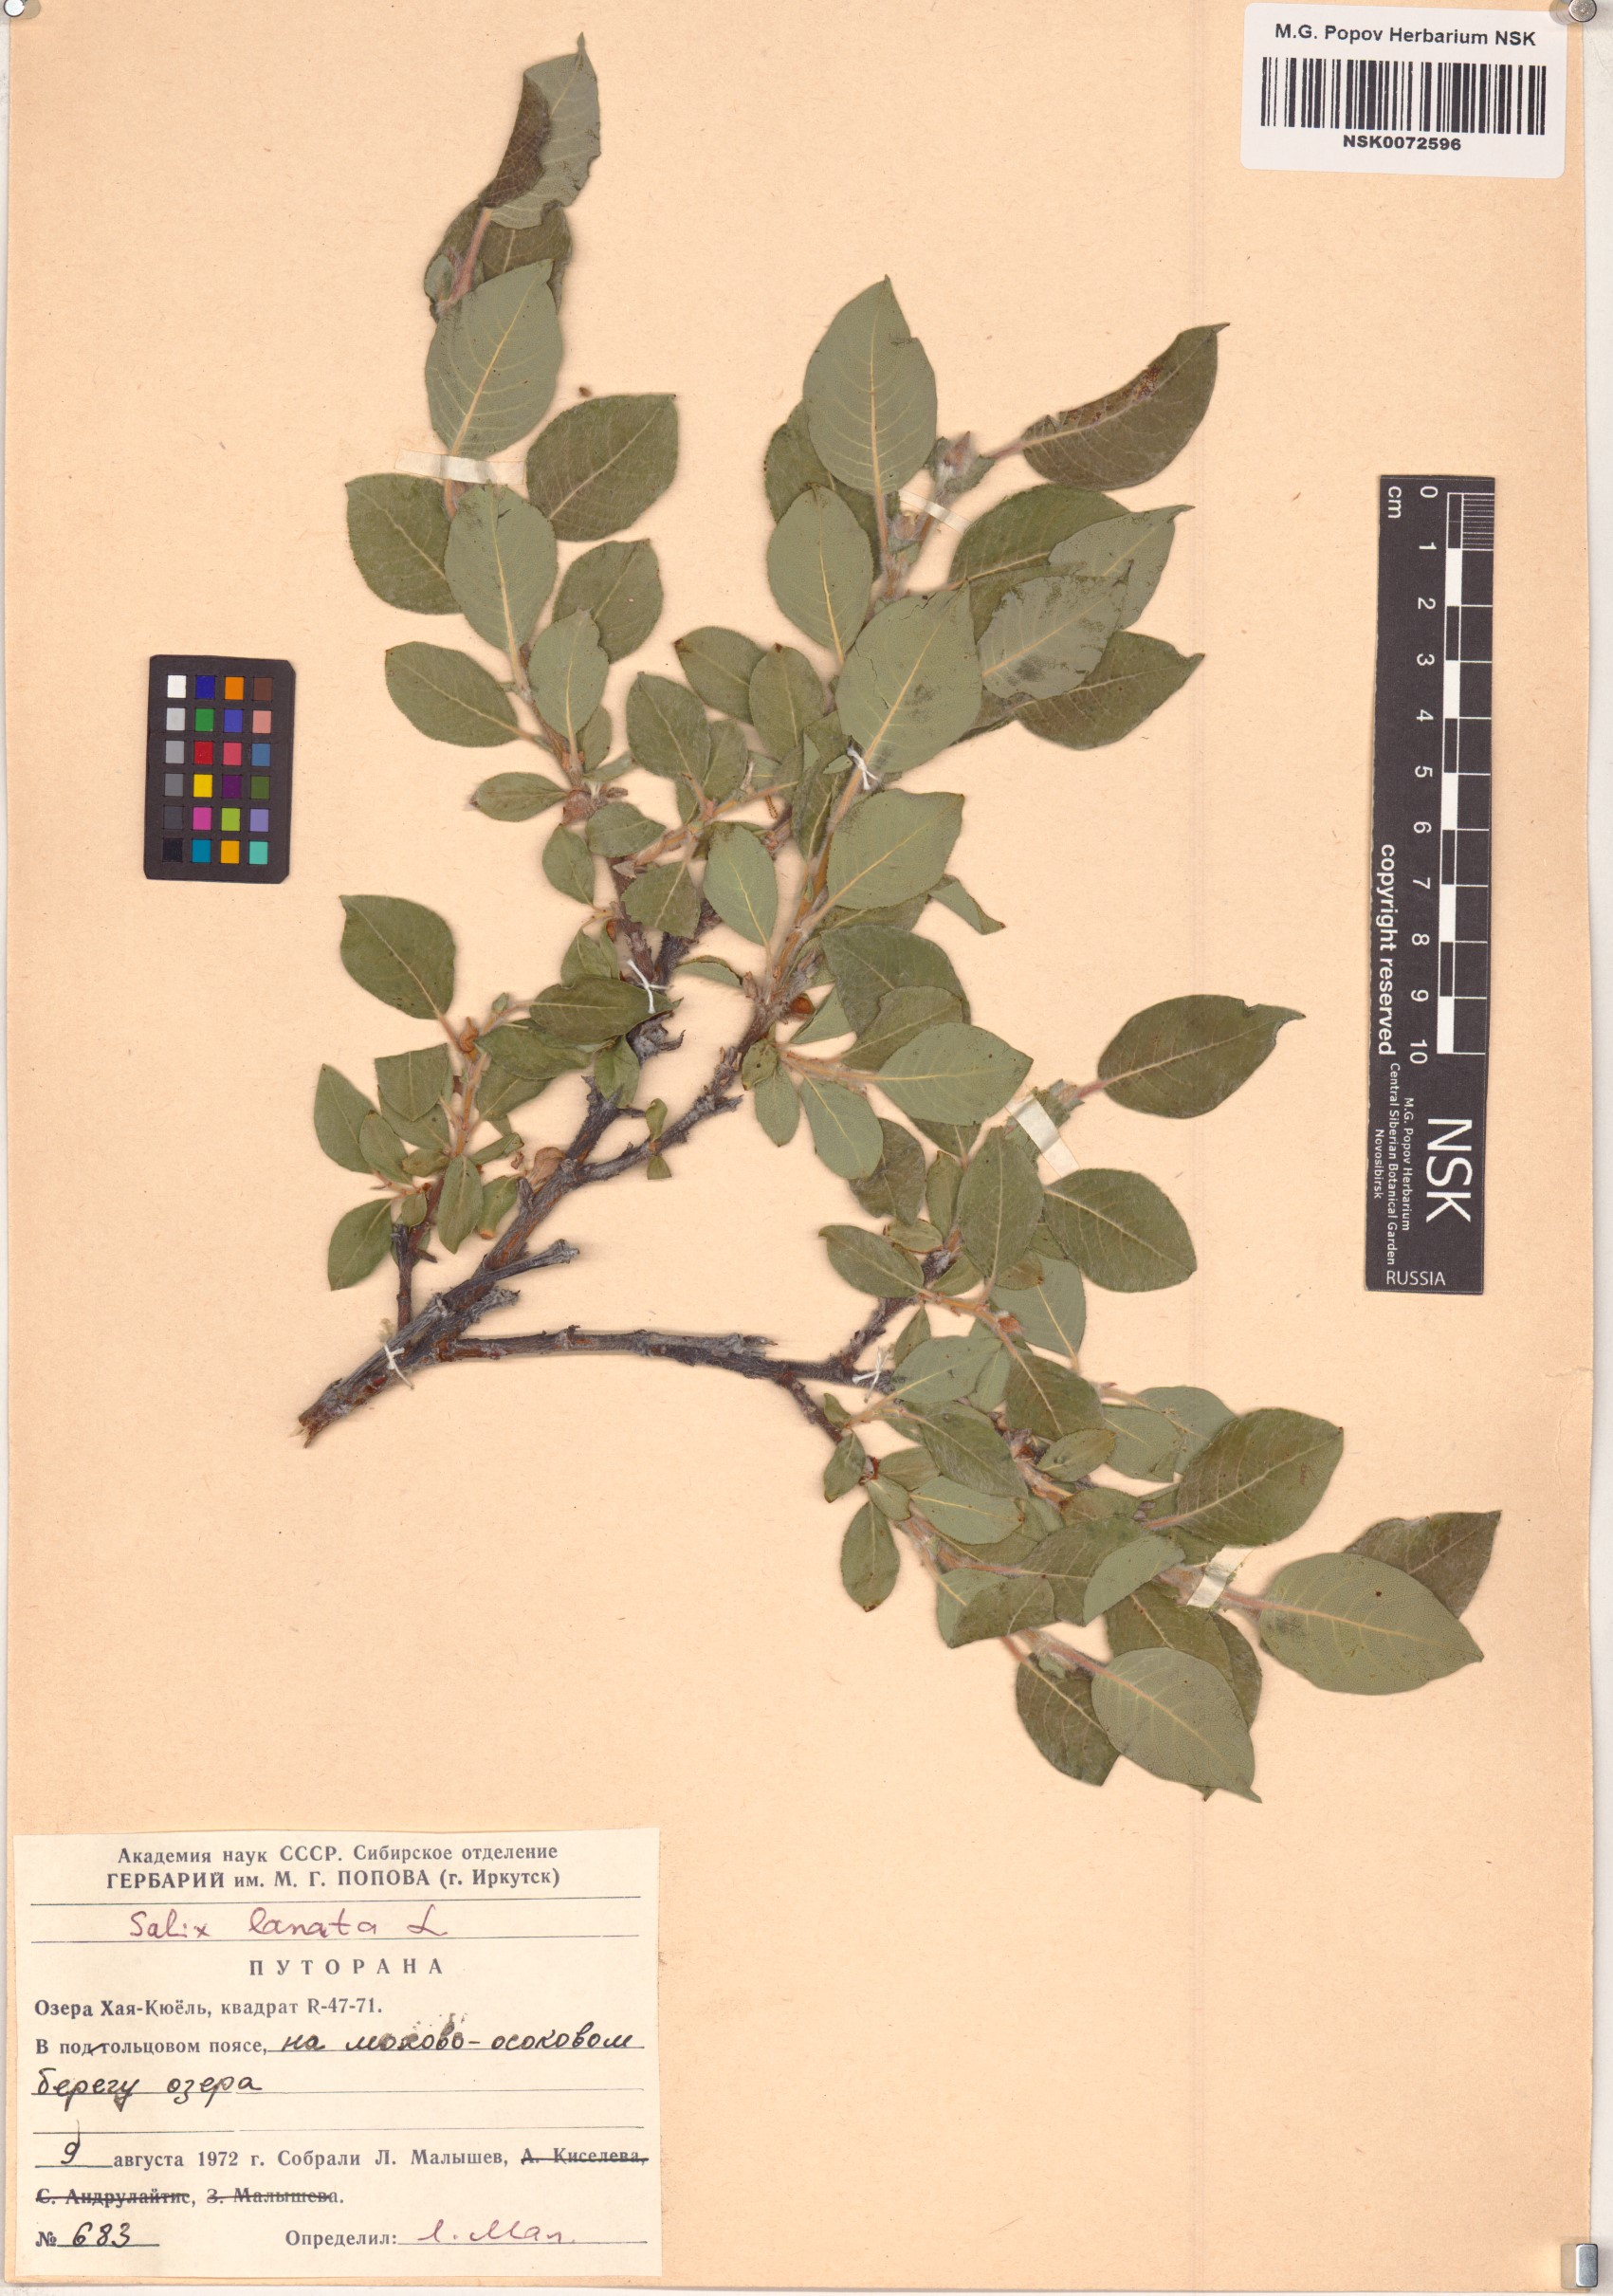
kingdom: Plantae
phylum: Tracheophyta
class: Magnoliopsida
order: Malpighiales
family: Salicaceae
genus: Salix
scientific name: Salix lanata
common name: Woolly willow
